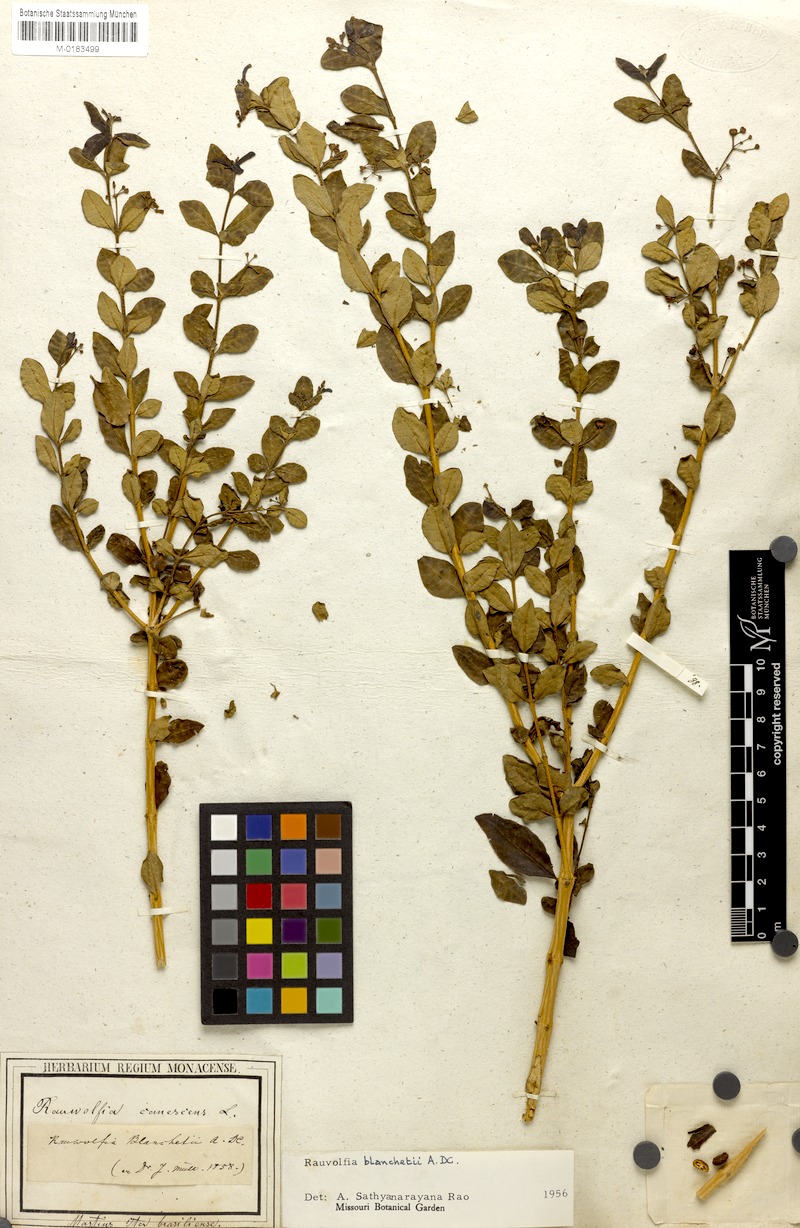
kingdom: Plantae
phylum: Tracheophyta
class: Magnoliopsida
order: Gentianales
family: Apocynaceae
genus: Rauvolfia
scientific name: Rauvolfia ligustrina
